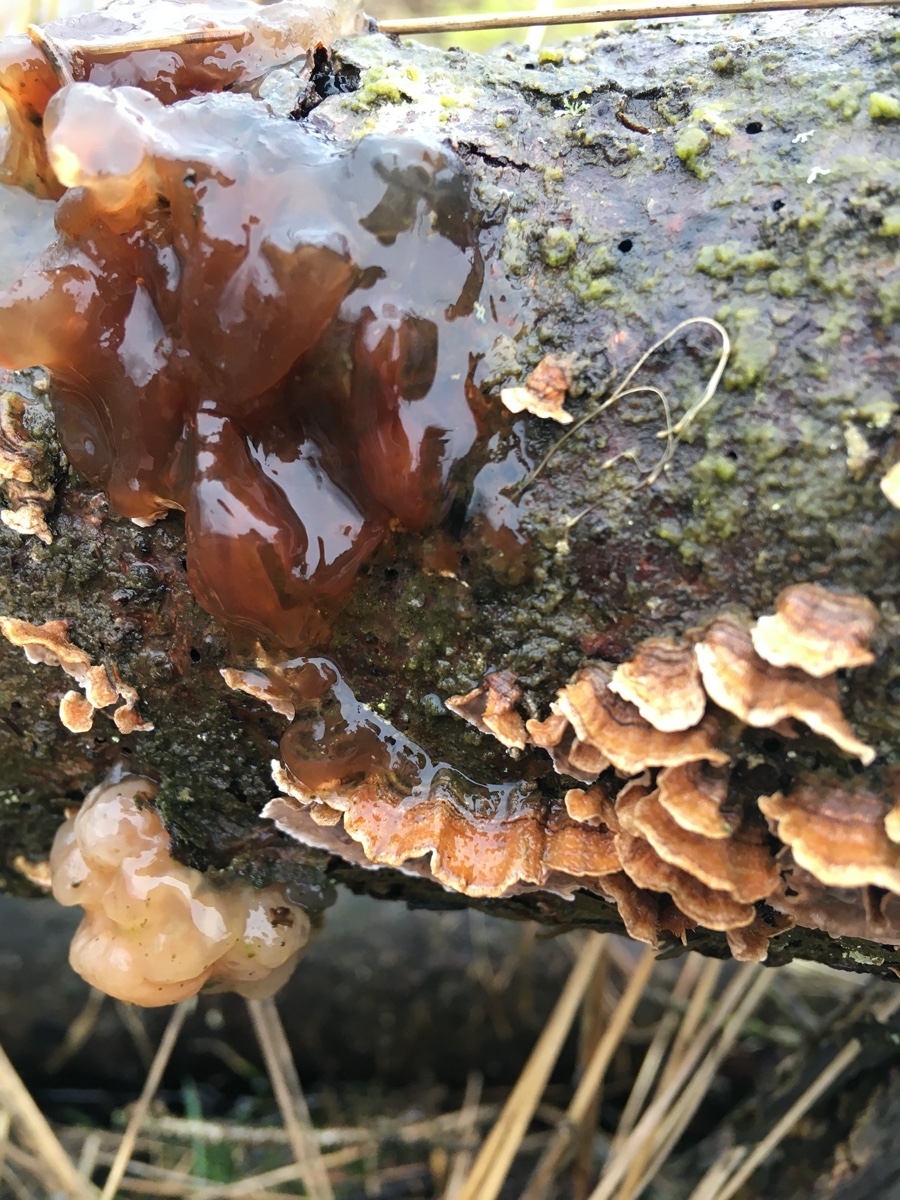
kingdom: Fungi
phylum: Basidiomycota
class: Tremellomycetes
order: Tremellales
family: Tremellaceae
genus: Phaeotremella
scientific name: Phaeotremella foliacea
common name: brun bævresvamp
